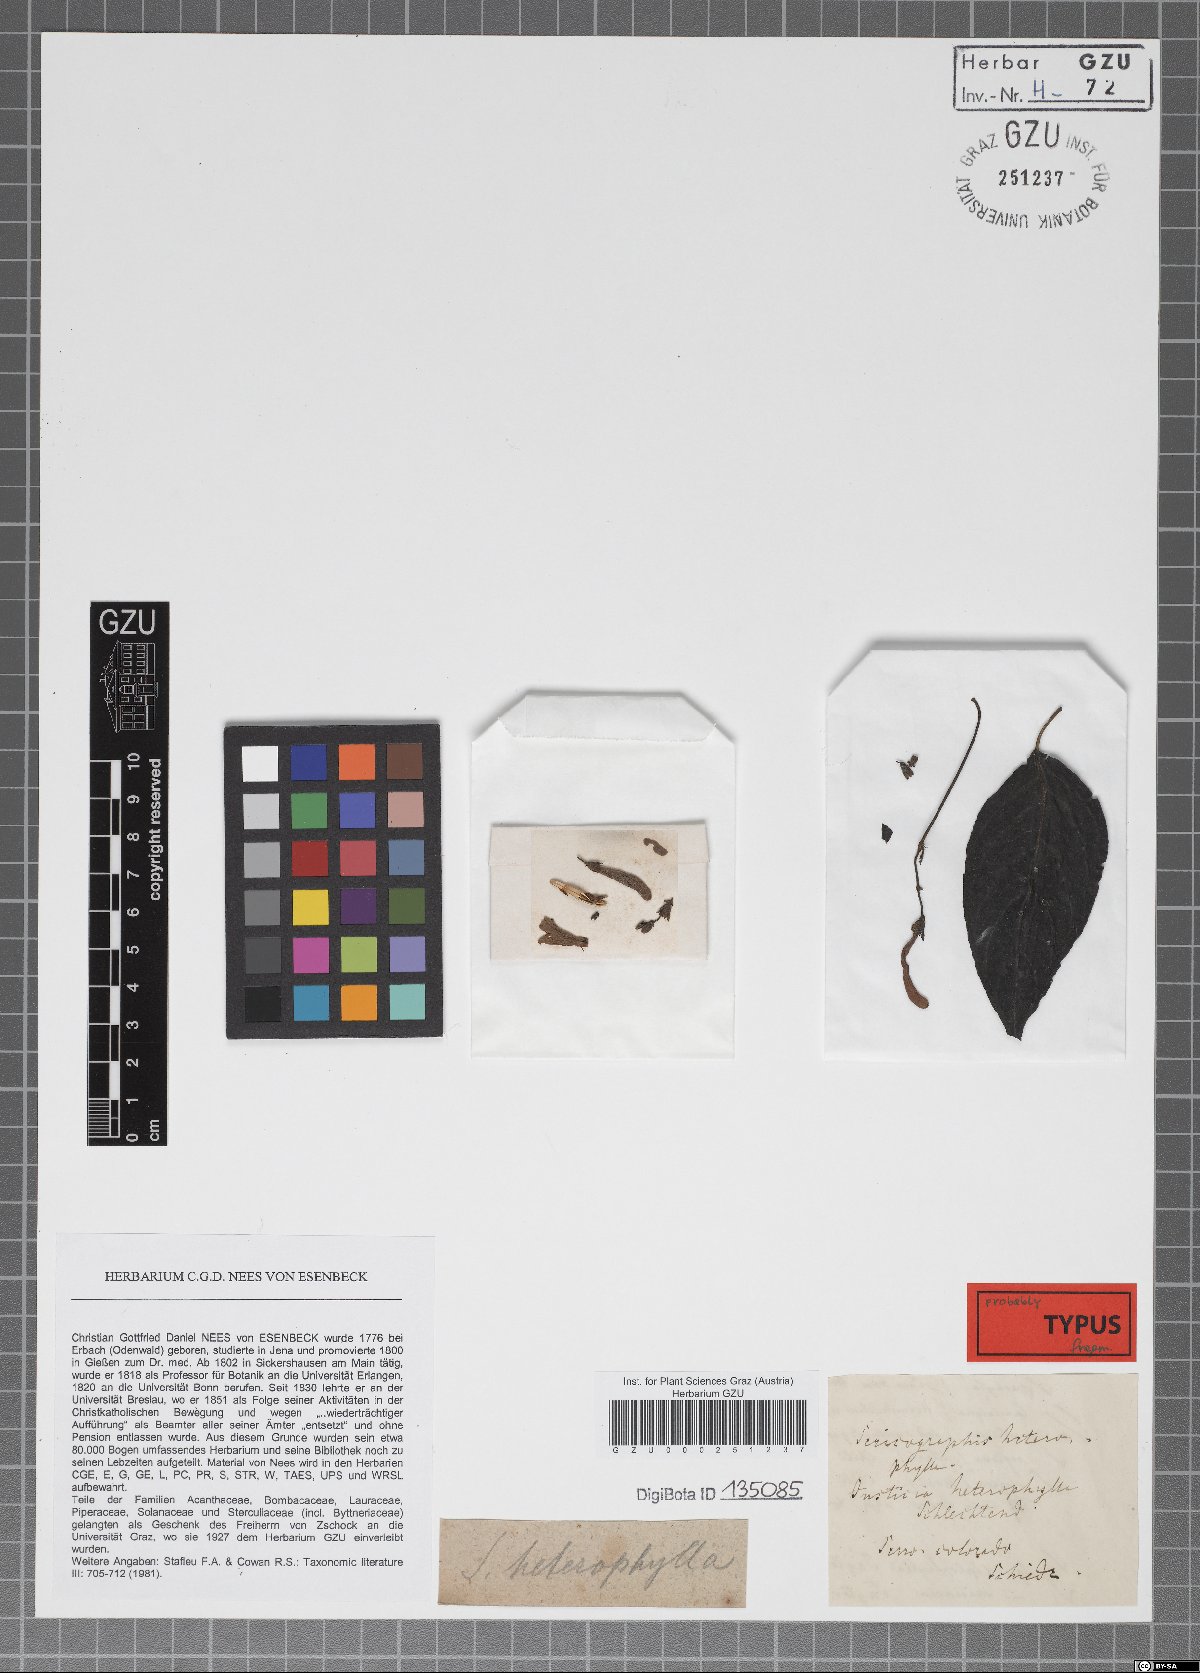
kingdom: Plantae
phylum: Tracheophyta
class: Magnoliopsida
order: Lamiales
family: Acanthaceae
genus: Justicia
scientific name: Justicia heterophylla
